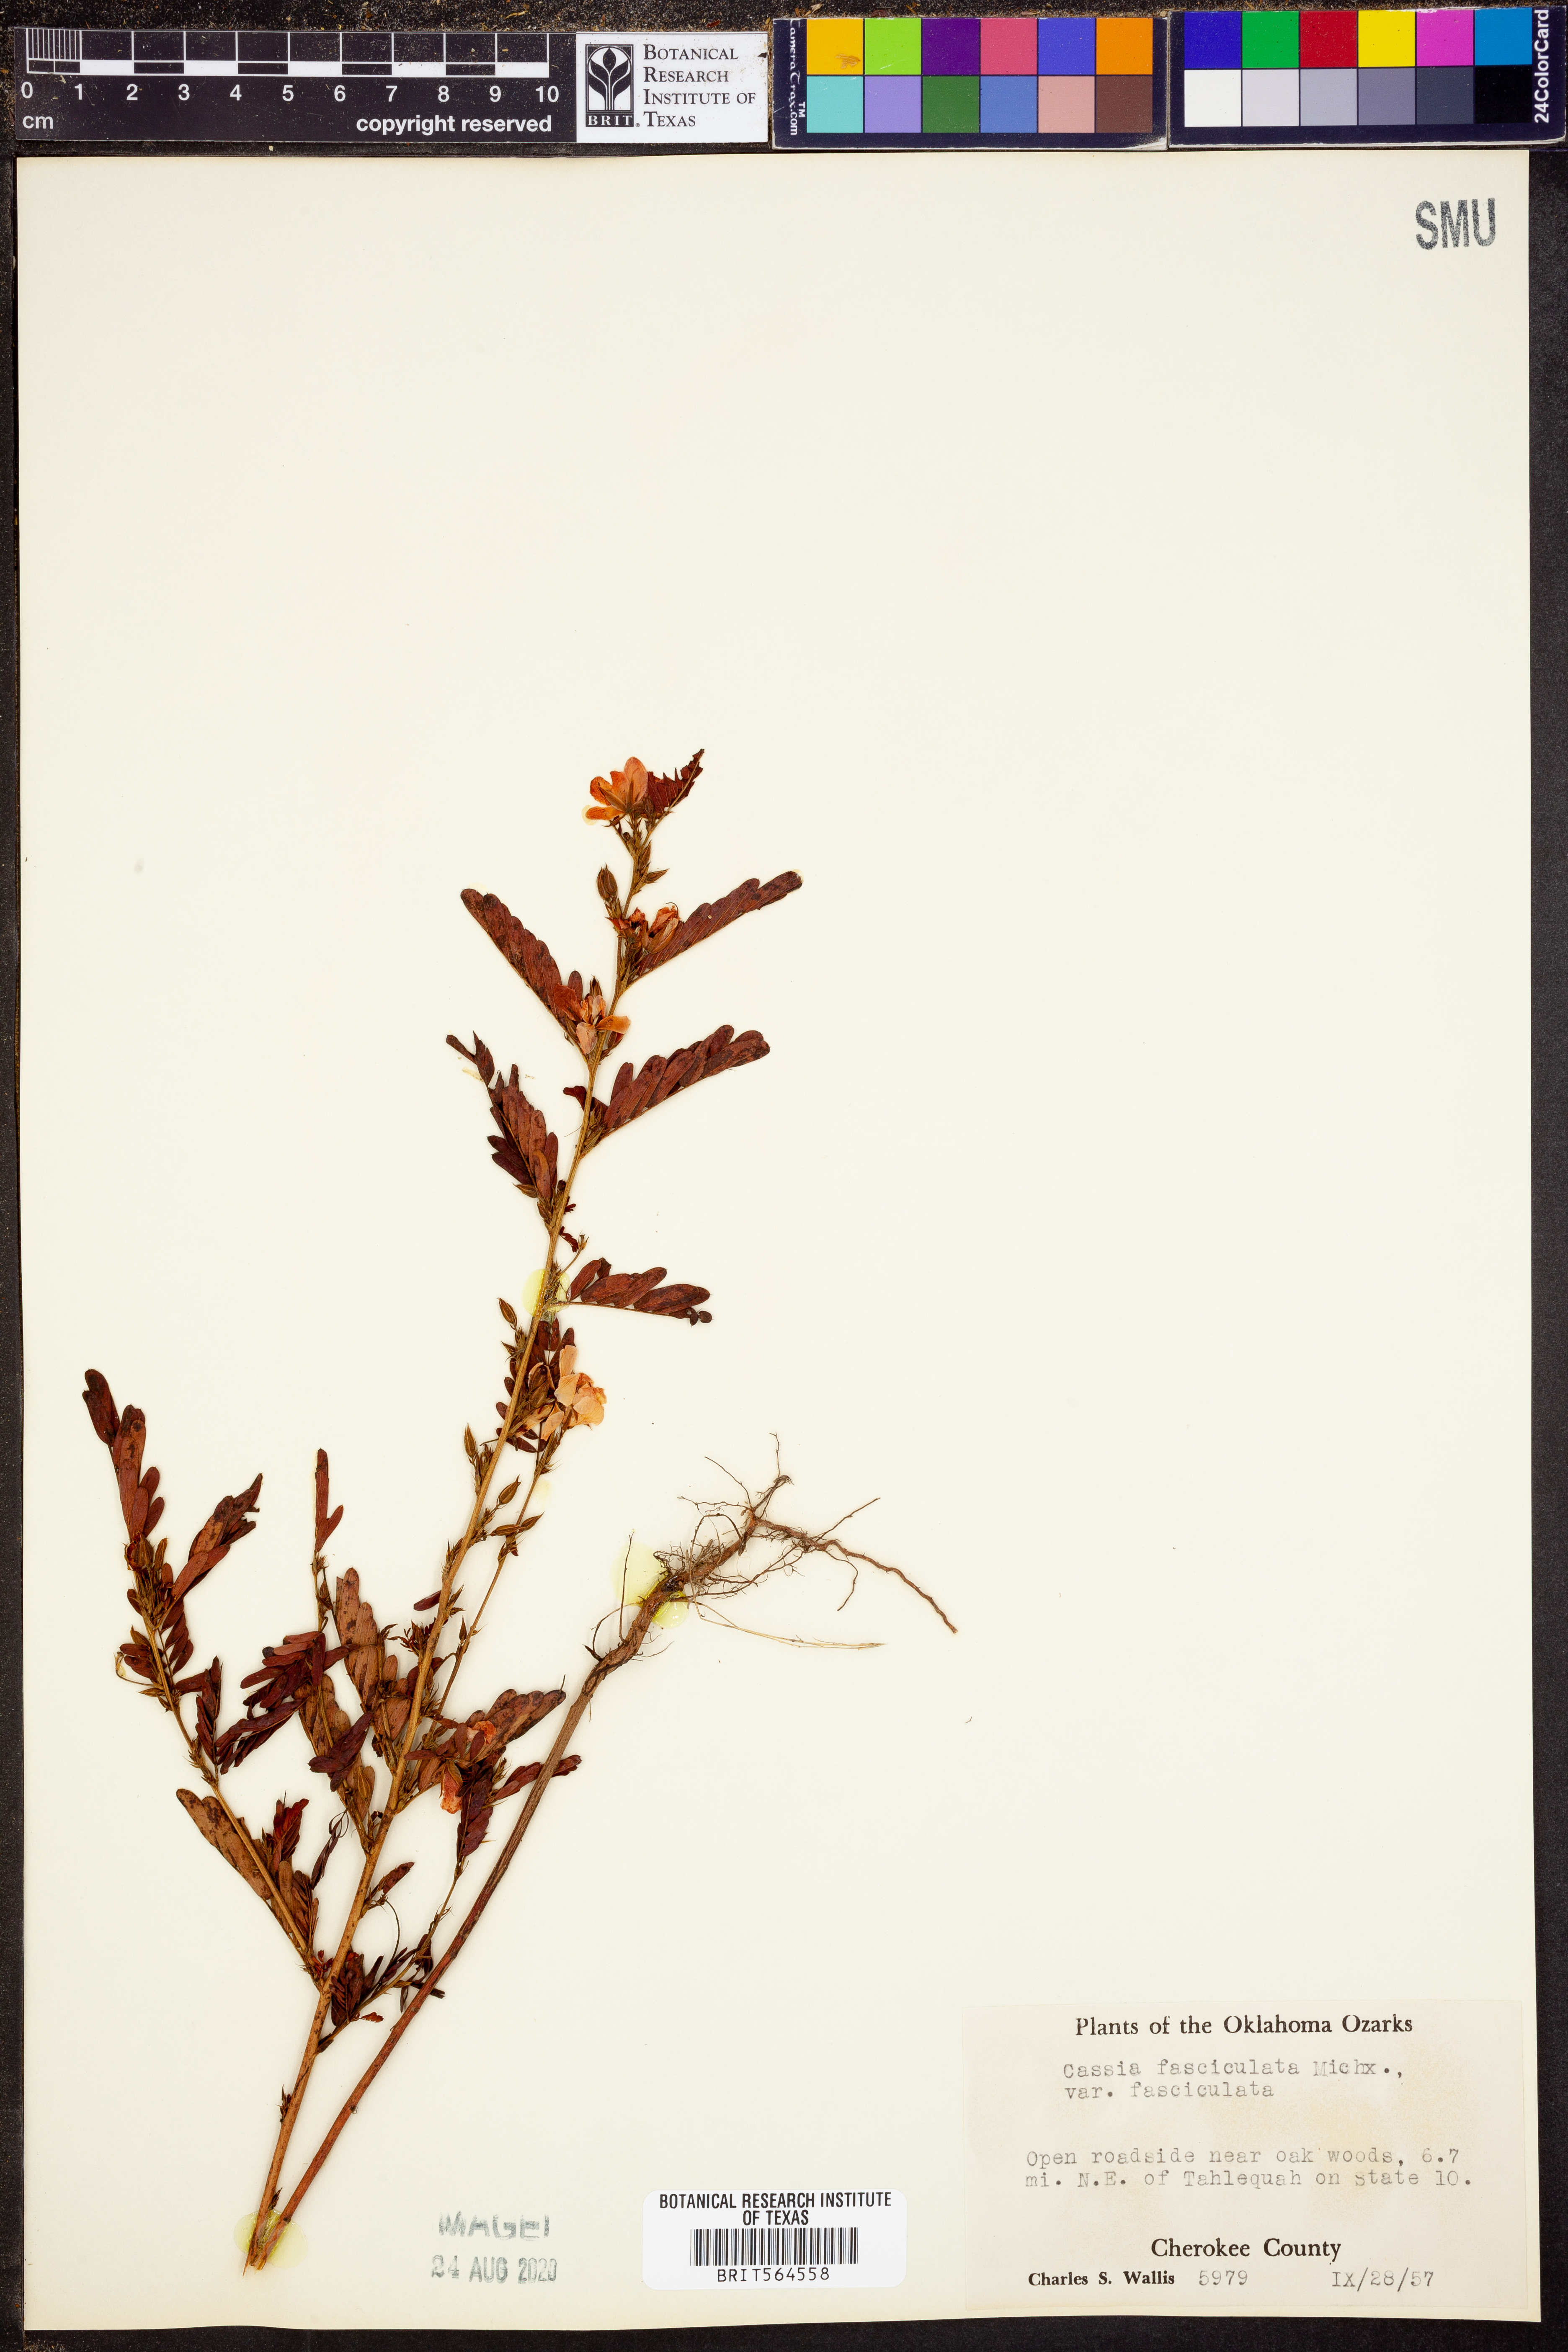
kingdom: Plantae
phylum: Tracheophyta
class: Magnoliopsida
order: Fabales
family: Fabaceae
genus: Chamaecrista
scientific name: Chamaecrista fasciculata
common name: Golden cassia
